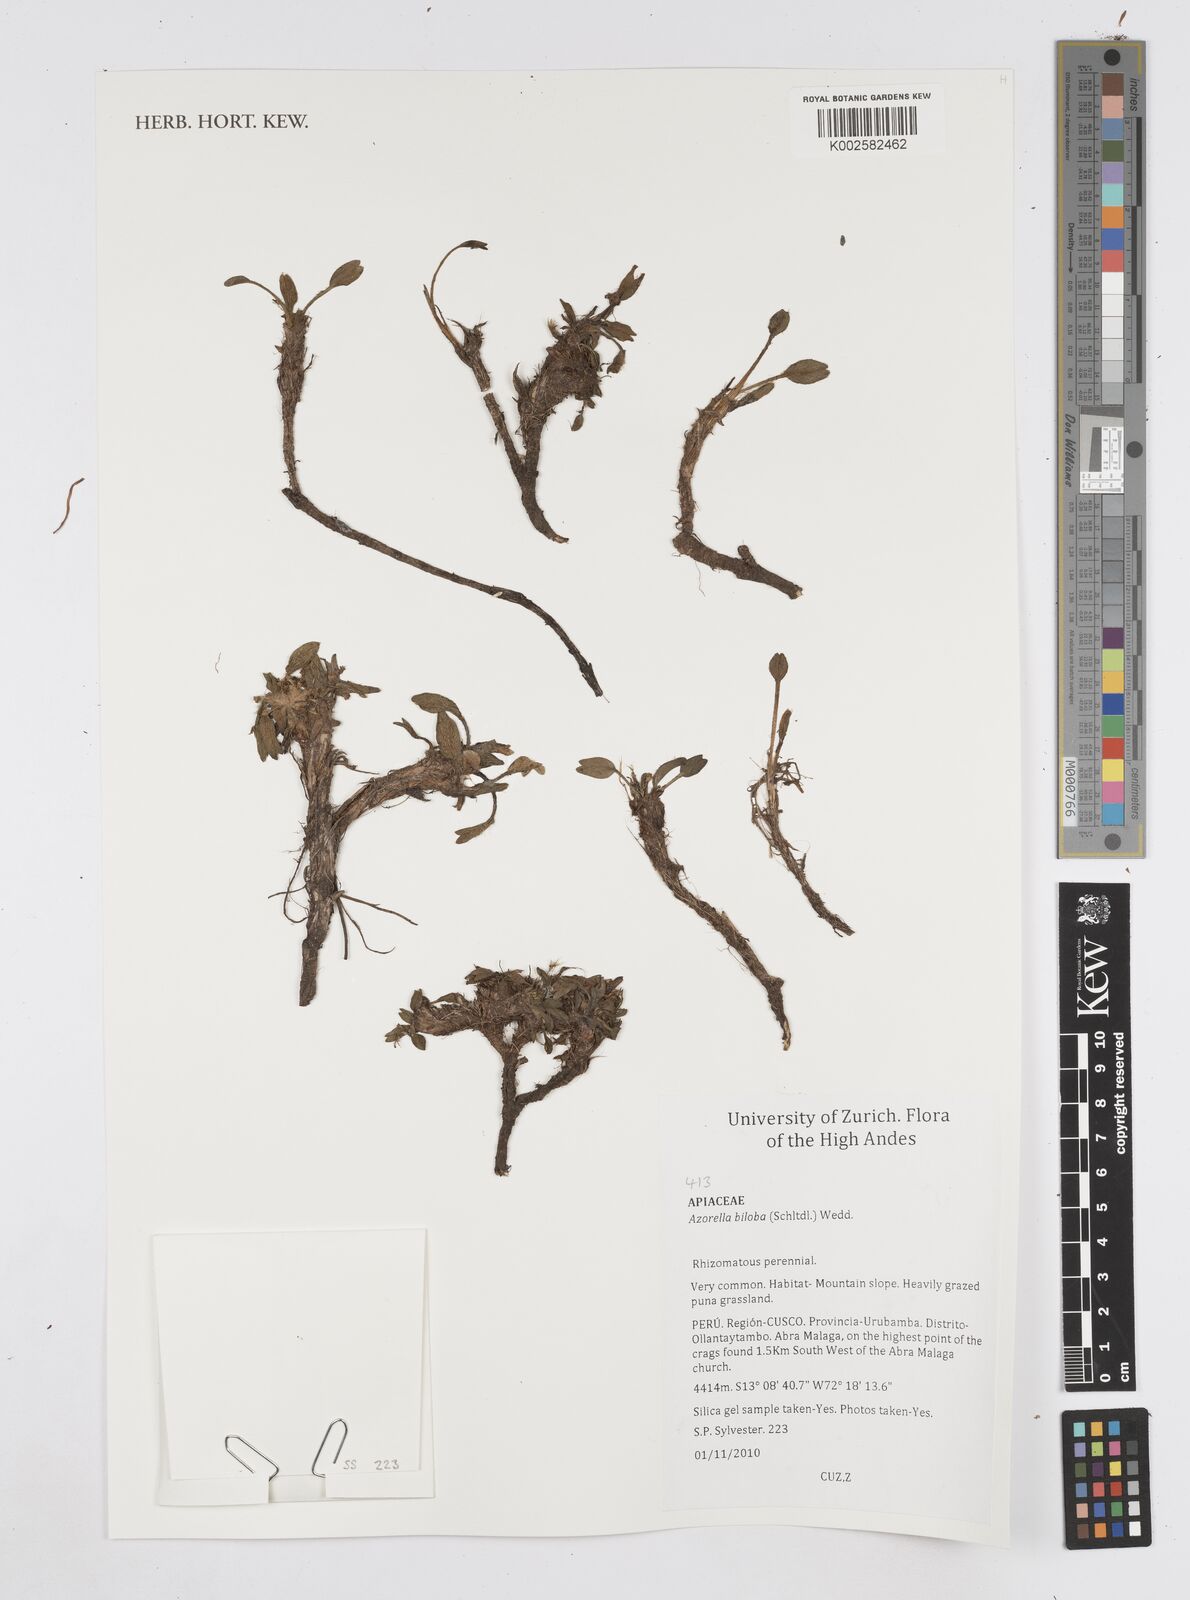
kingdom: Plantae
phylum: Tracheophyta
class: Magnoliopsida
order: Apiales
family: Apiaceae
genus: Azorella
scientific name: Azorella biloba
